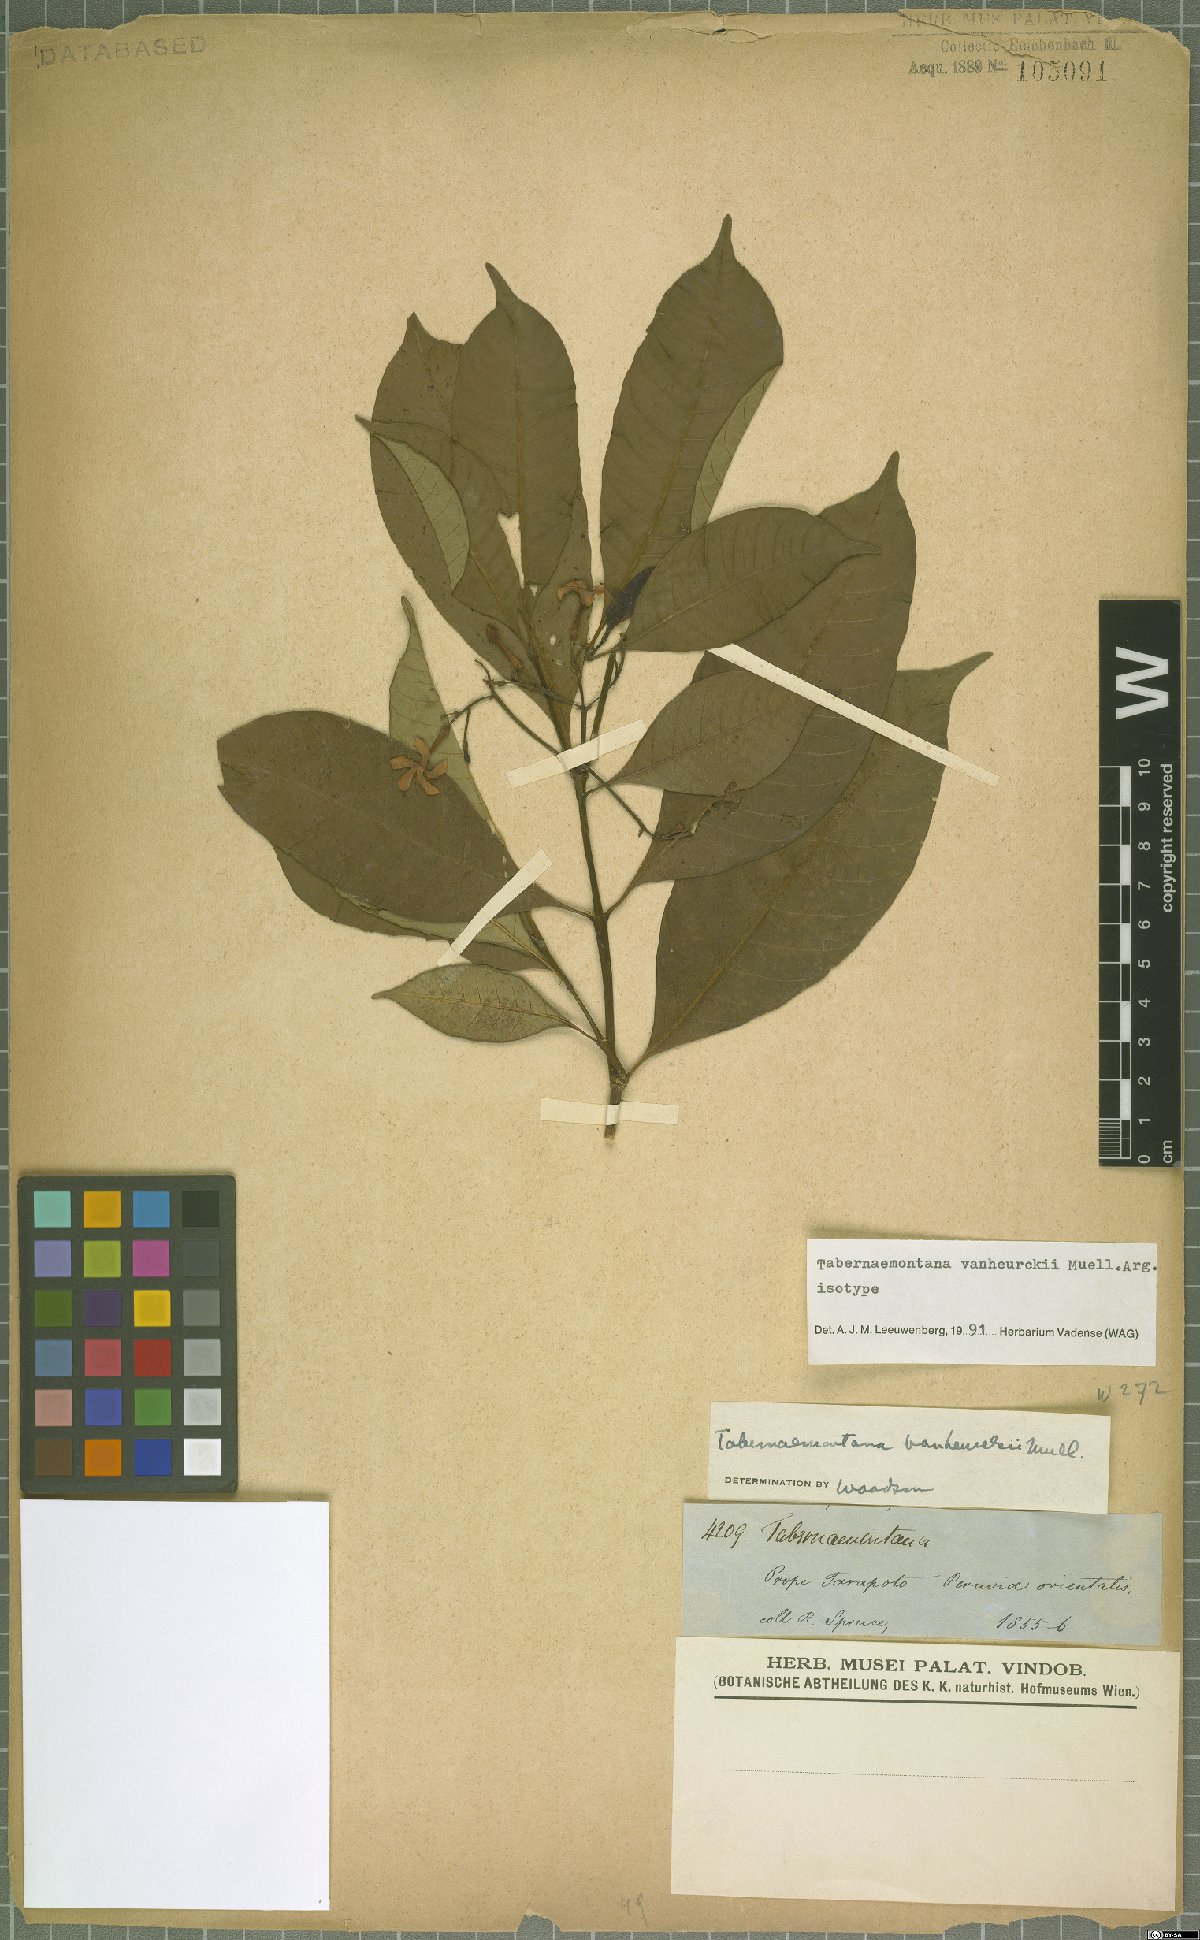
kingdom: Plantae
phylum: Tracheophyta
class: Magnoliopsida
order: Gentianales
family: Apocynaceae
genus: Tabernaemontana
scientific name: Tabernaemontana vanheurckii
